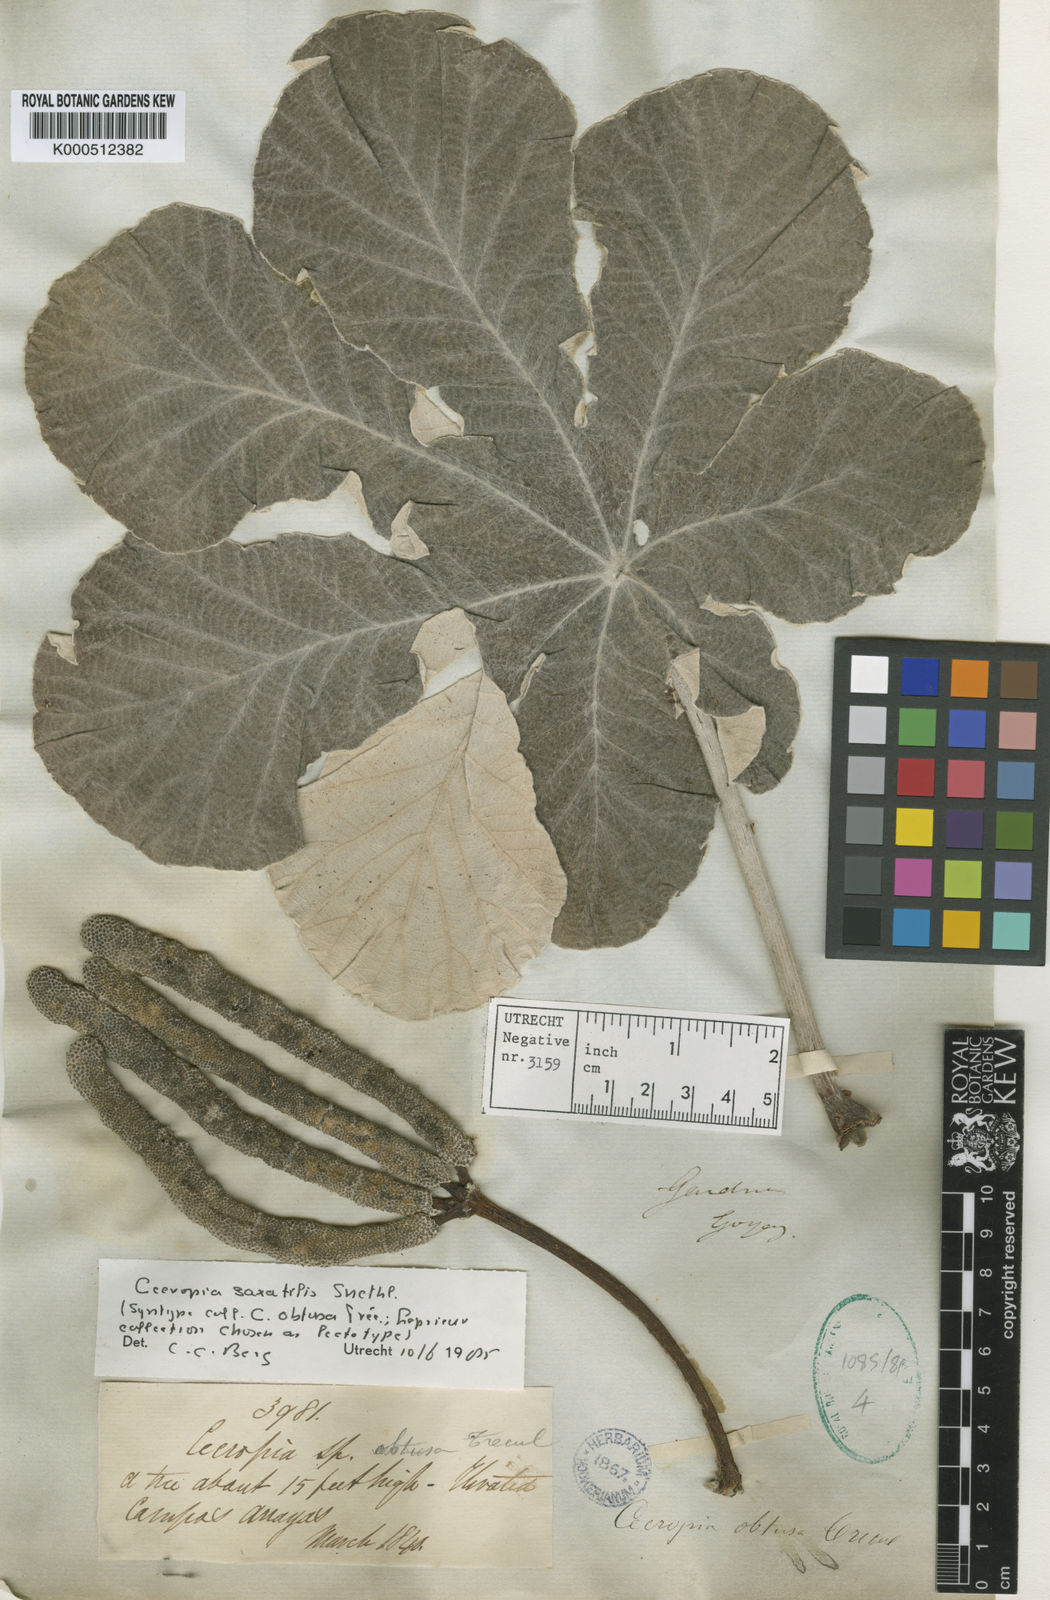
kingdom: Plantae
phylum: Tracheophyta
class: Magnoliopsida
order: Rosales
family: Urticaceae
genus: Cecropia
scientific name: Cecropia saxatilis
